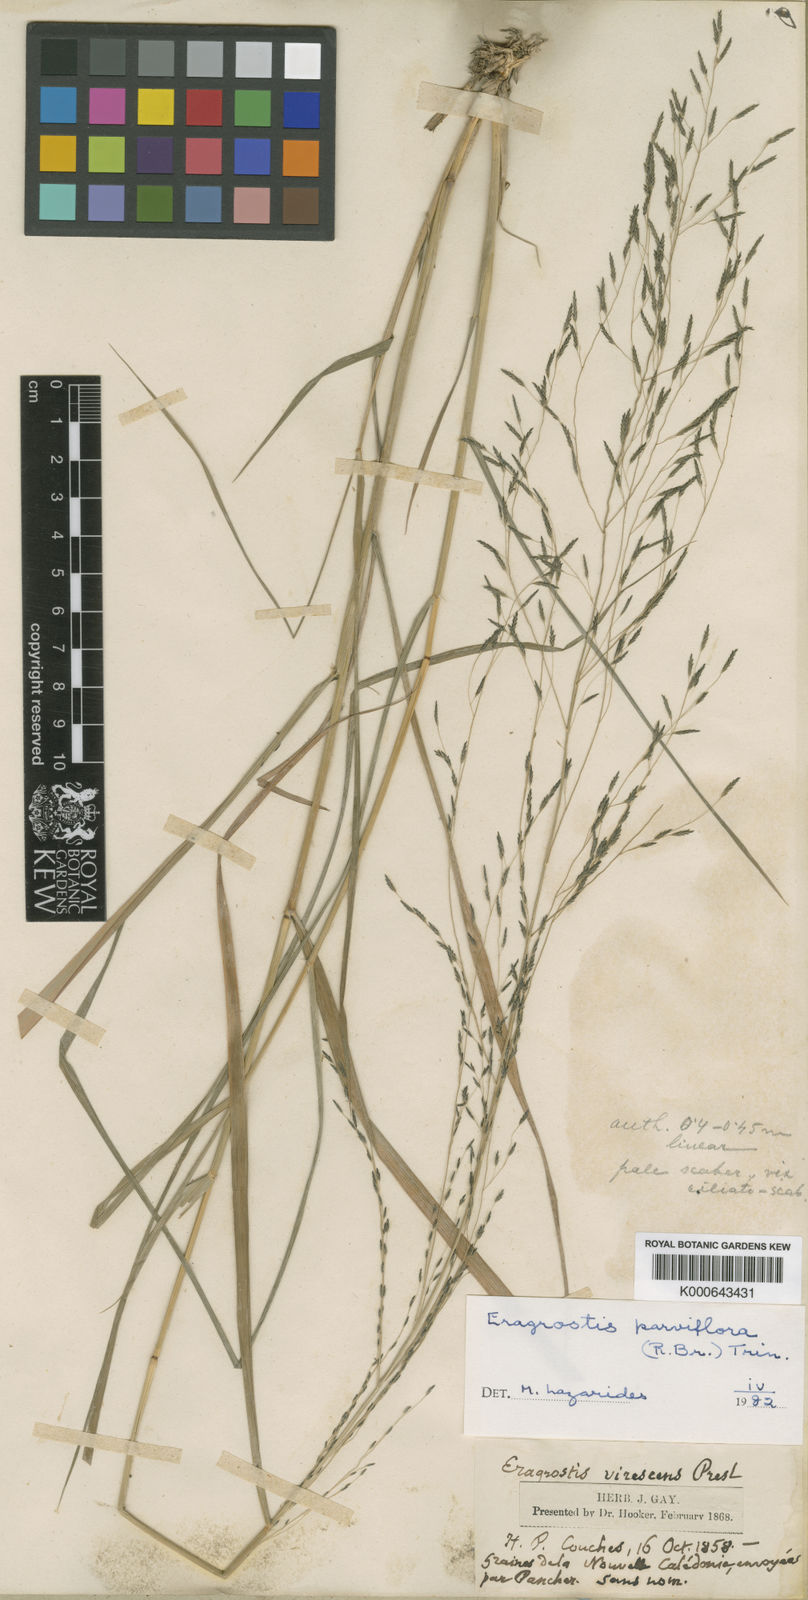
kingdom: Plantae
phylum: Tracheophyta
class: Liliopsida
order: Poales
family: Poaceae
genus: Eragrostis
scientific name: Eragrostis parviflora
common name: Weeping love-grass
